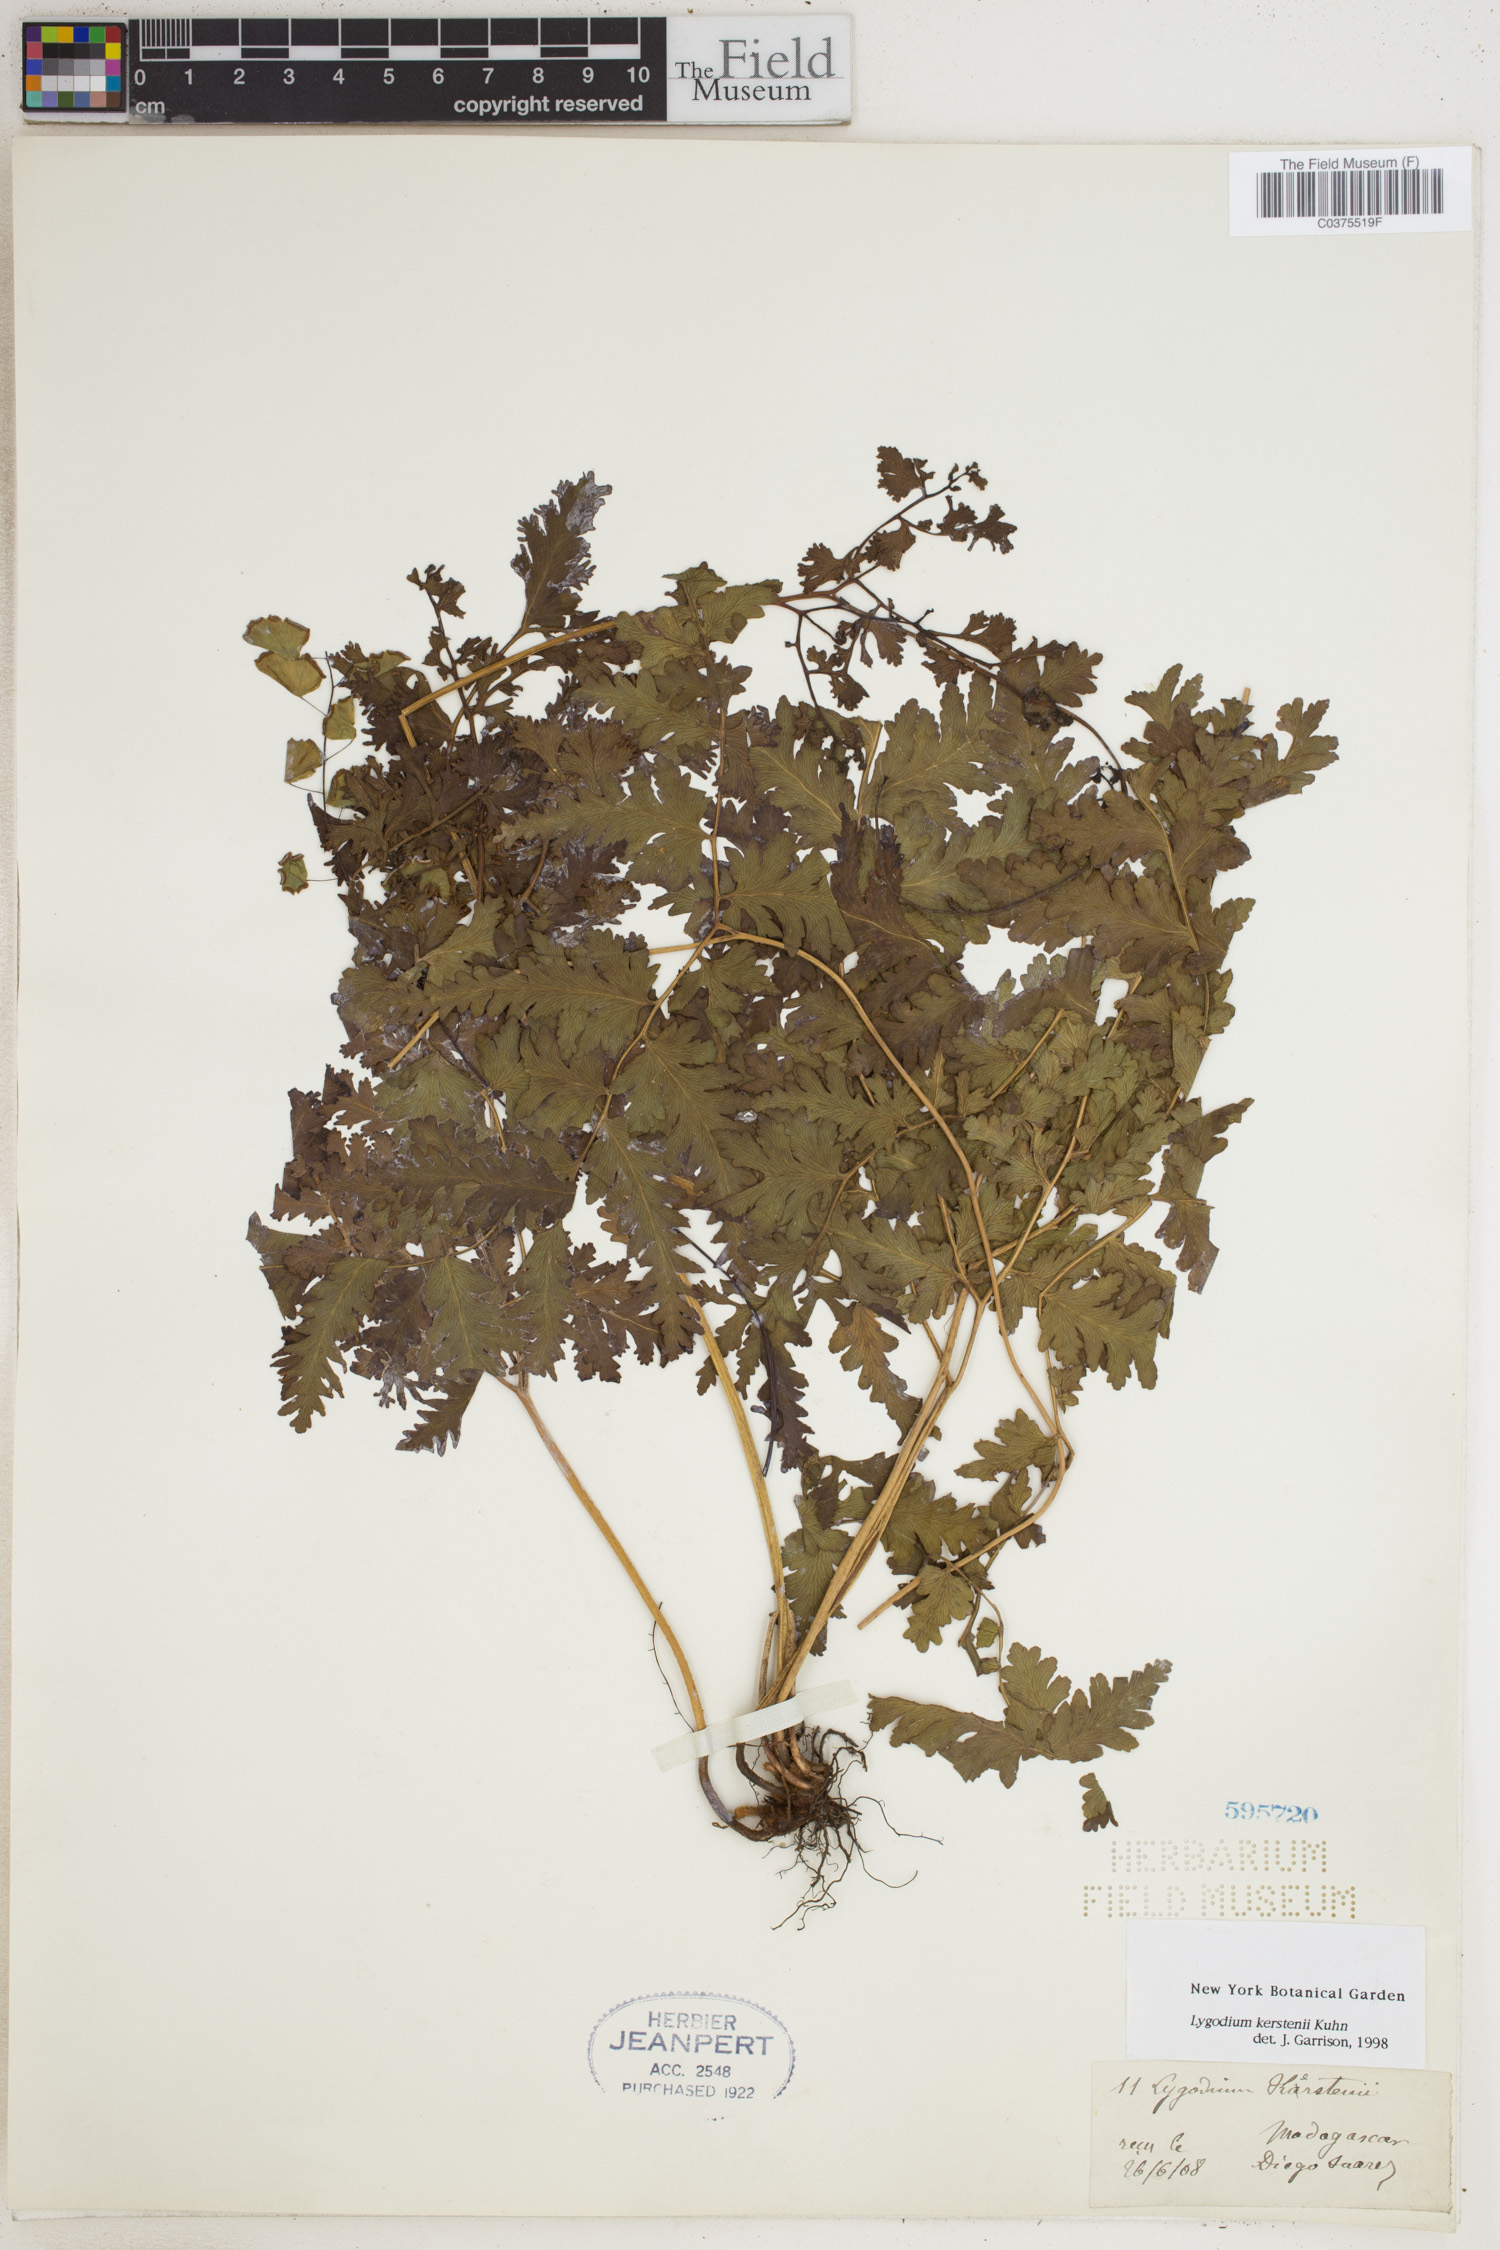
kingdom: Plantae
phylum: Tracheophyta
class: Polypodiopsida
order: Schizaeales
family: Lygodiaceae
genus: Lygodium
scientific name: Lygodium kerstenii
